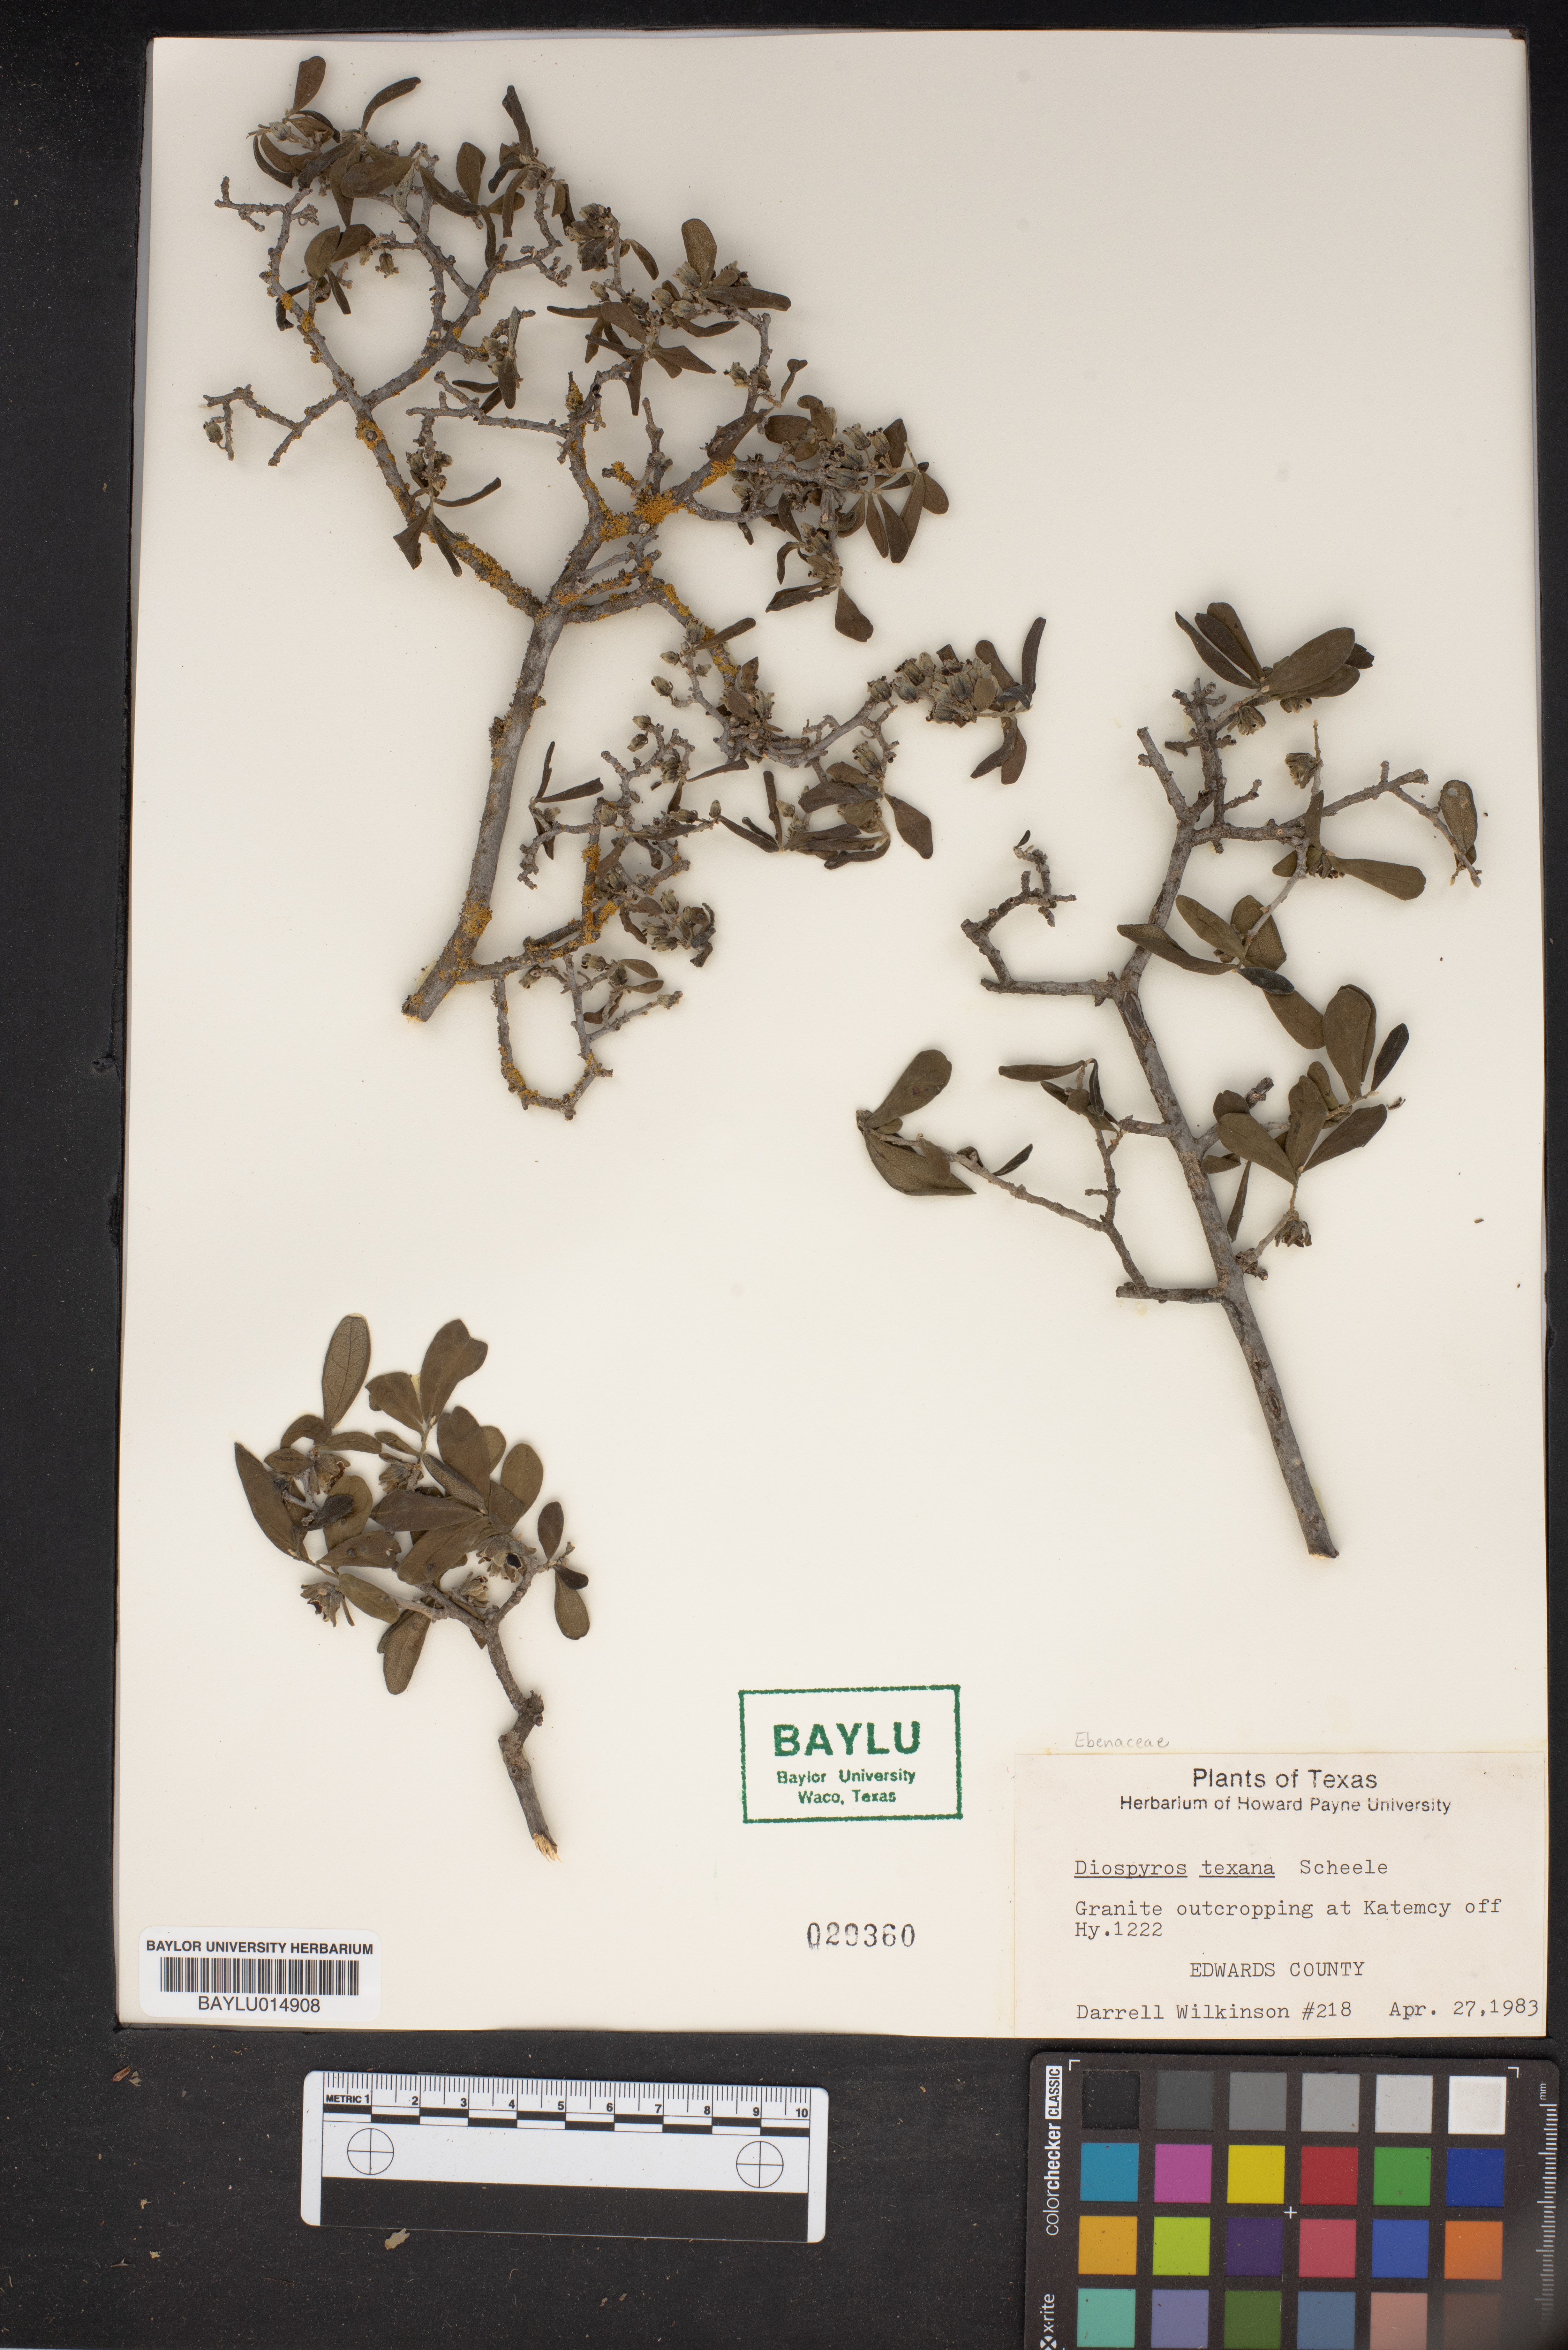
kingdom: Plantae
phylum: Tracheophyta
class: Magnoliopsida
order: Ericales
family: Ebenaceae
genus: Diospyros
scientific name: Diospyros texana
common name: Texas persimmon
